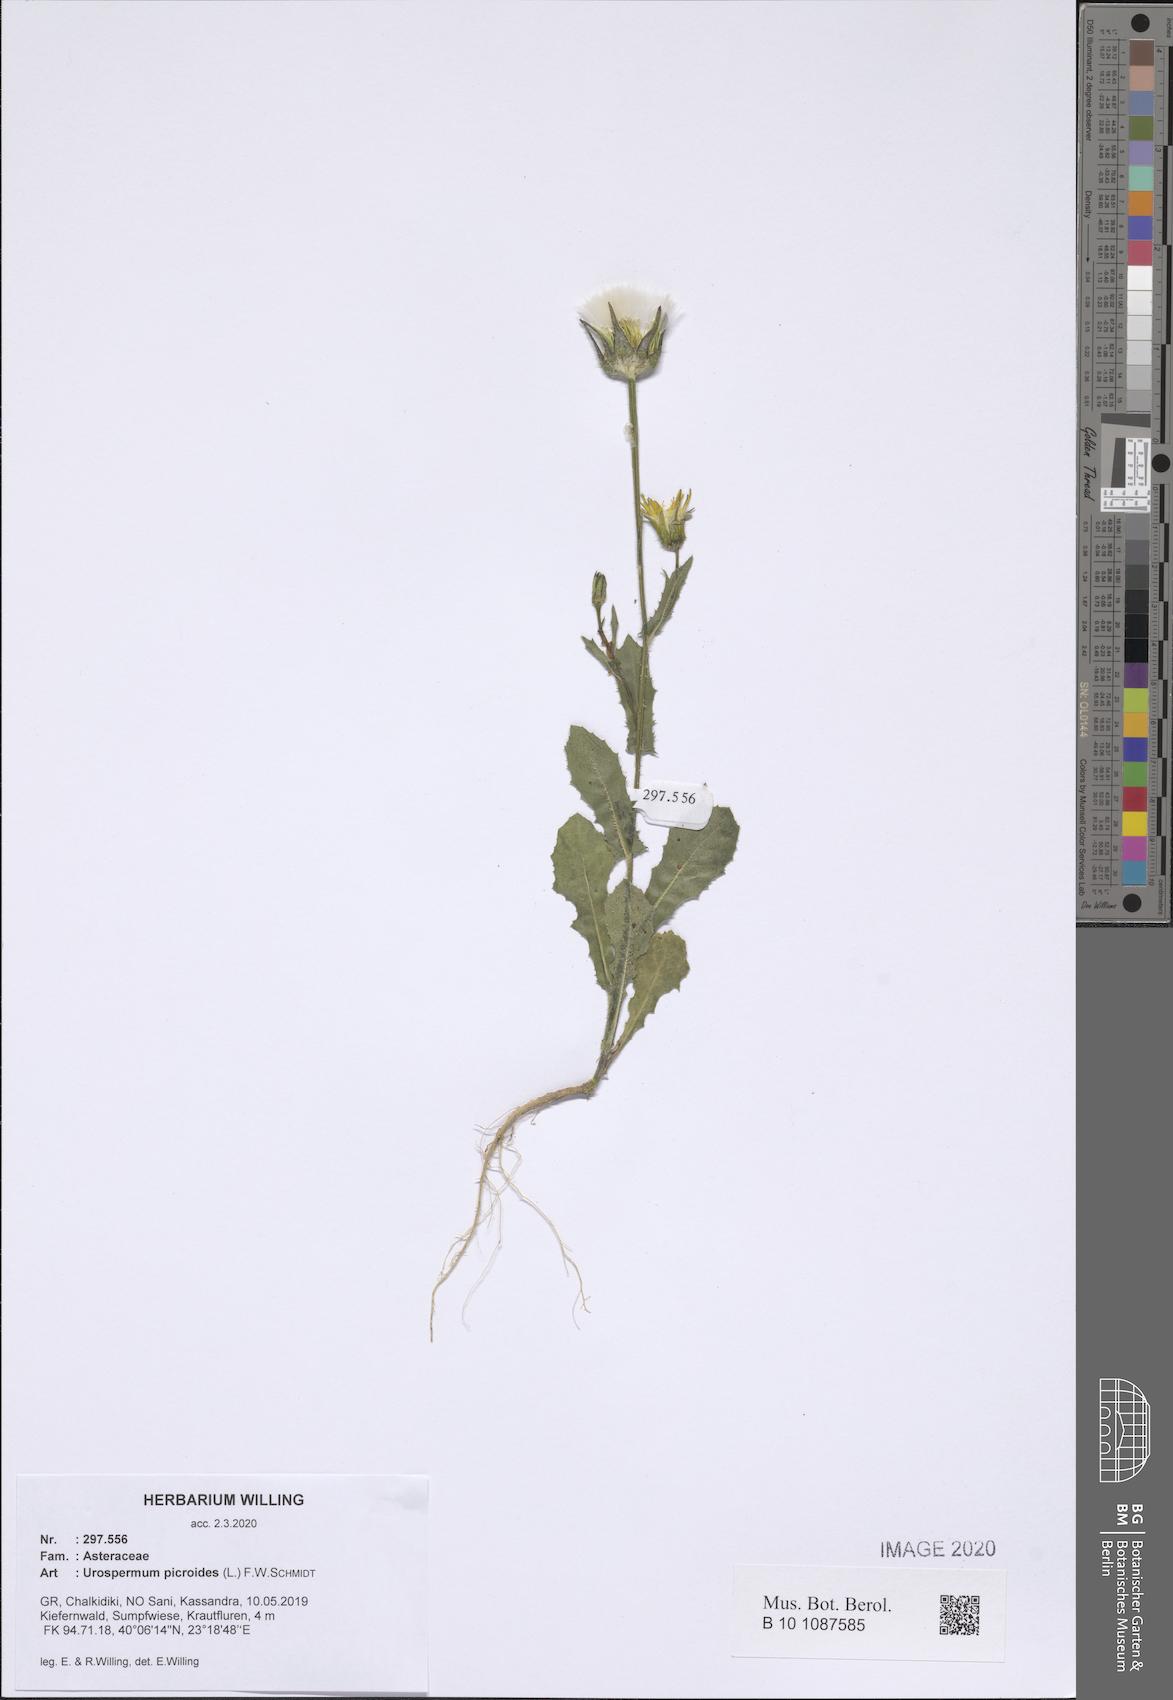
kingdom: Plantae
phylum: Tracheophyta
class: Magnoliopsida
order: Asterales
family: Asteraceae
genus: Urospermum
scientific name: Urospermum picroides
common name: False hawkbit
